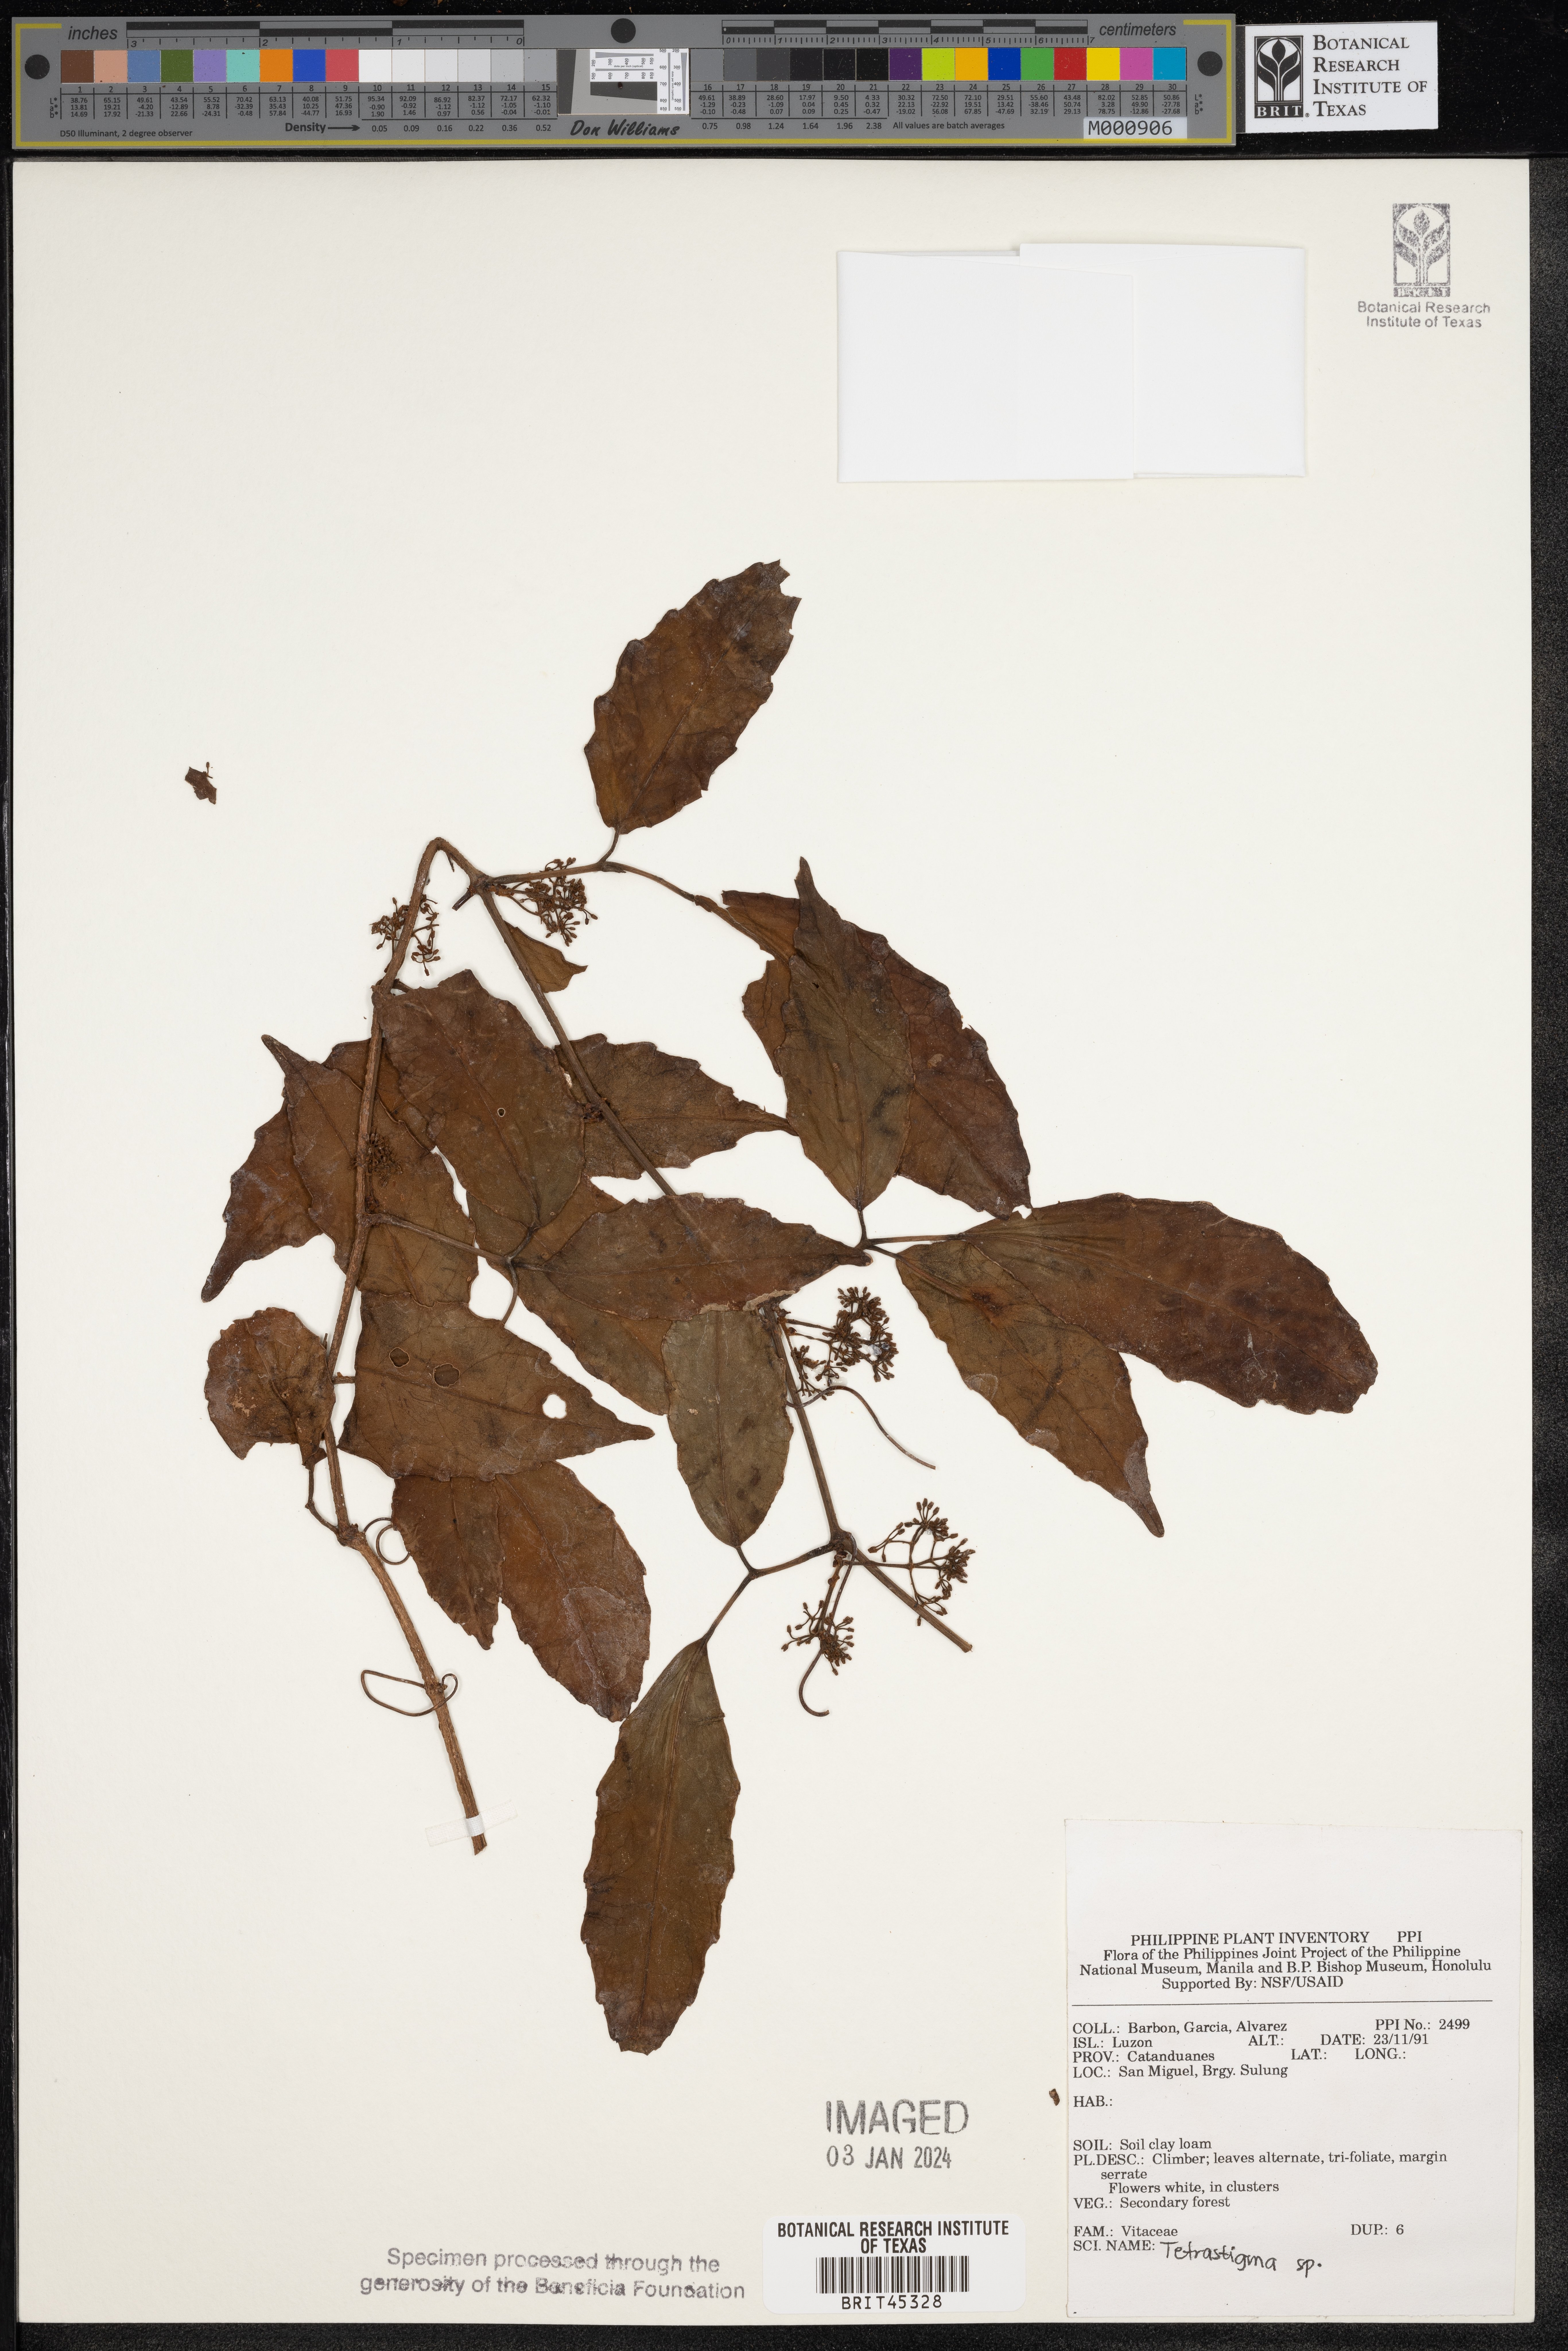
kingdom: Plantae
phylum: Tracheophyta
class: Magnoliopsida
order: Vitales
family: Vitaceae
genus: Tetrastigma
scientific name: Tetrastigma
